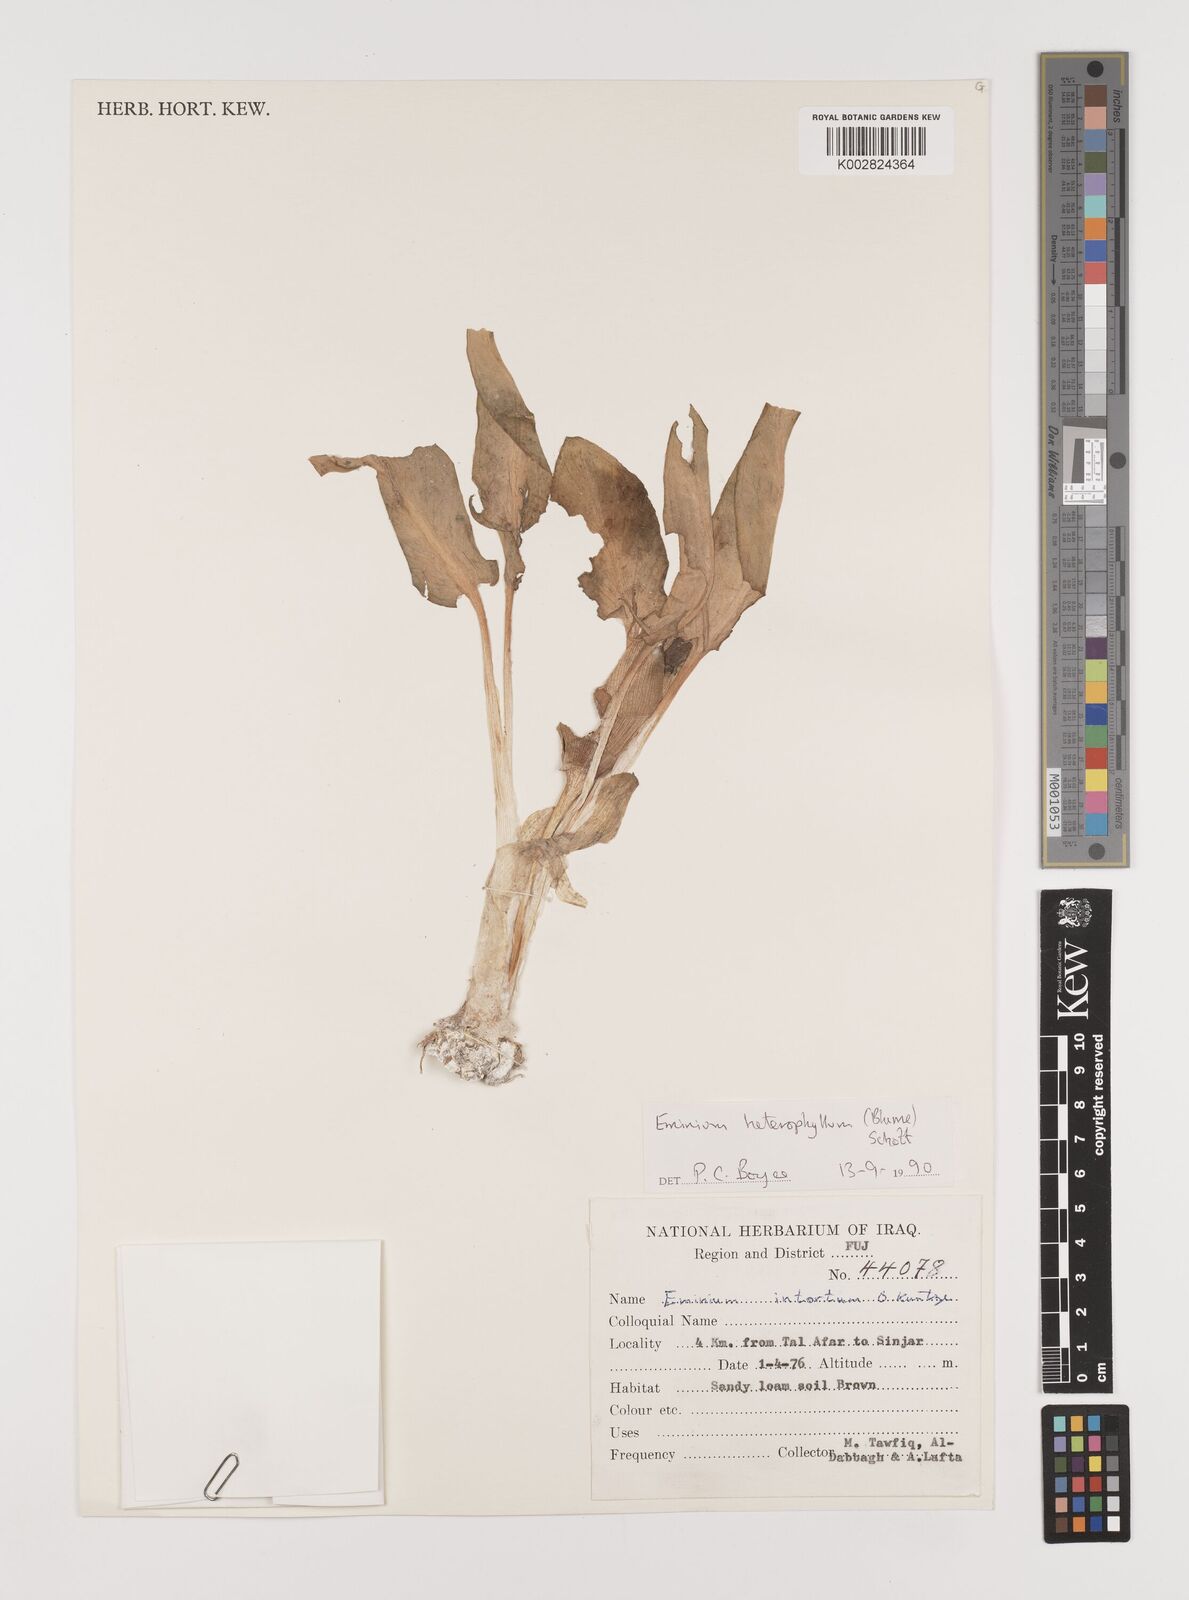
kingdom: Plantae
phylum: Tracheophyta
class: Liliopsida
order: Alismatales
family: Araceae
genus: Eminium
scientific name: Eminium rauwolffii
